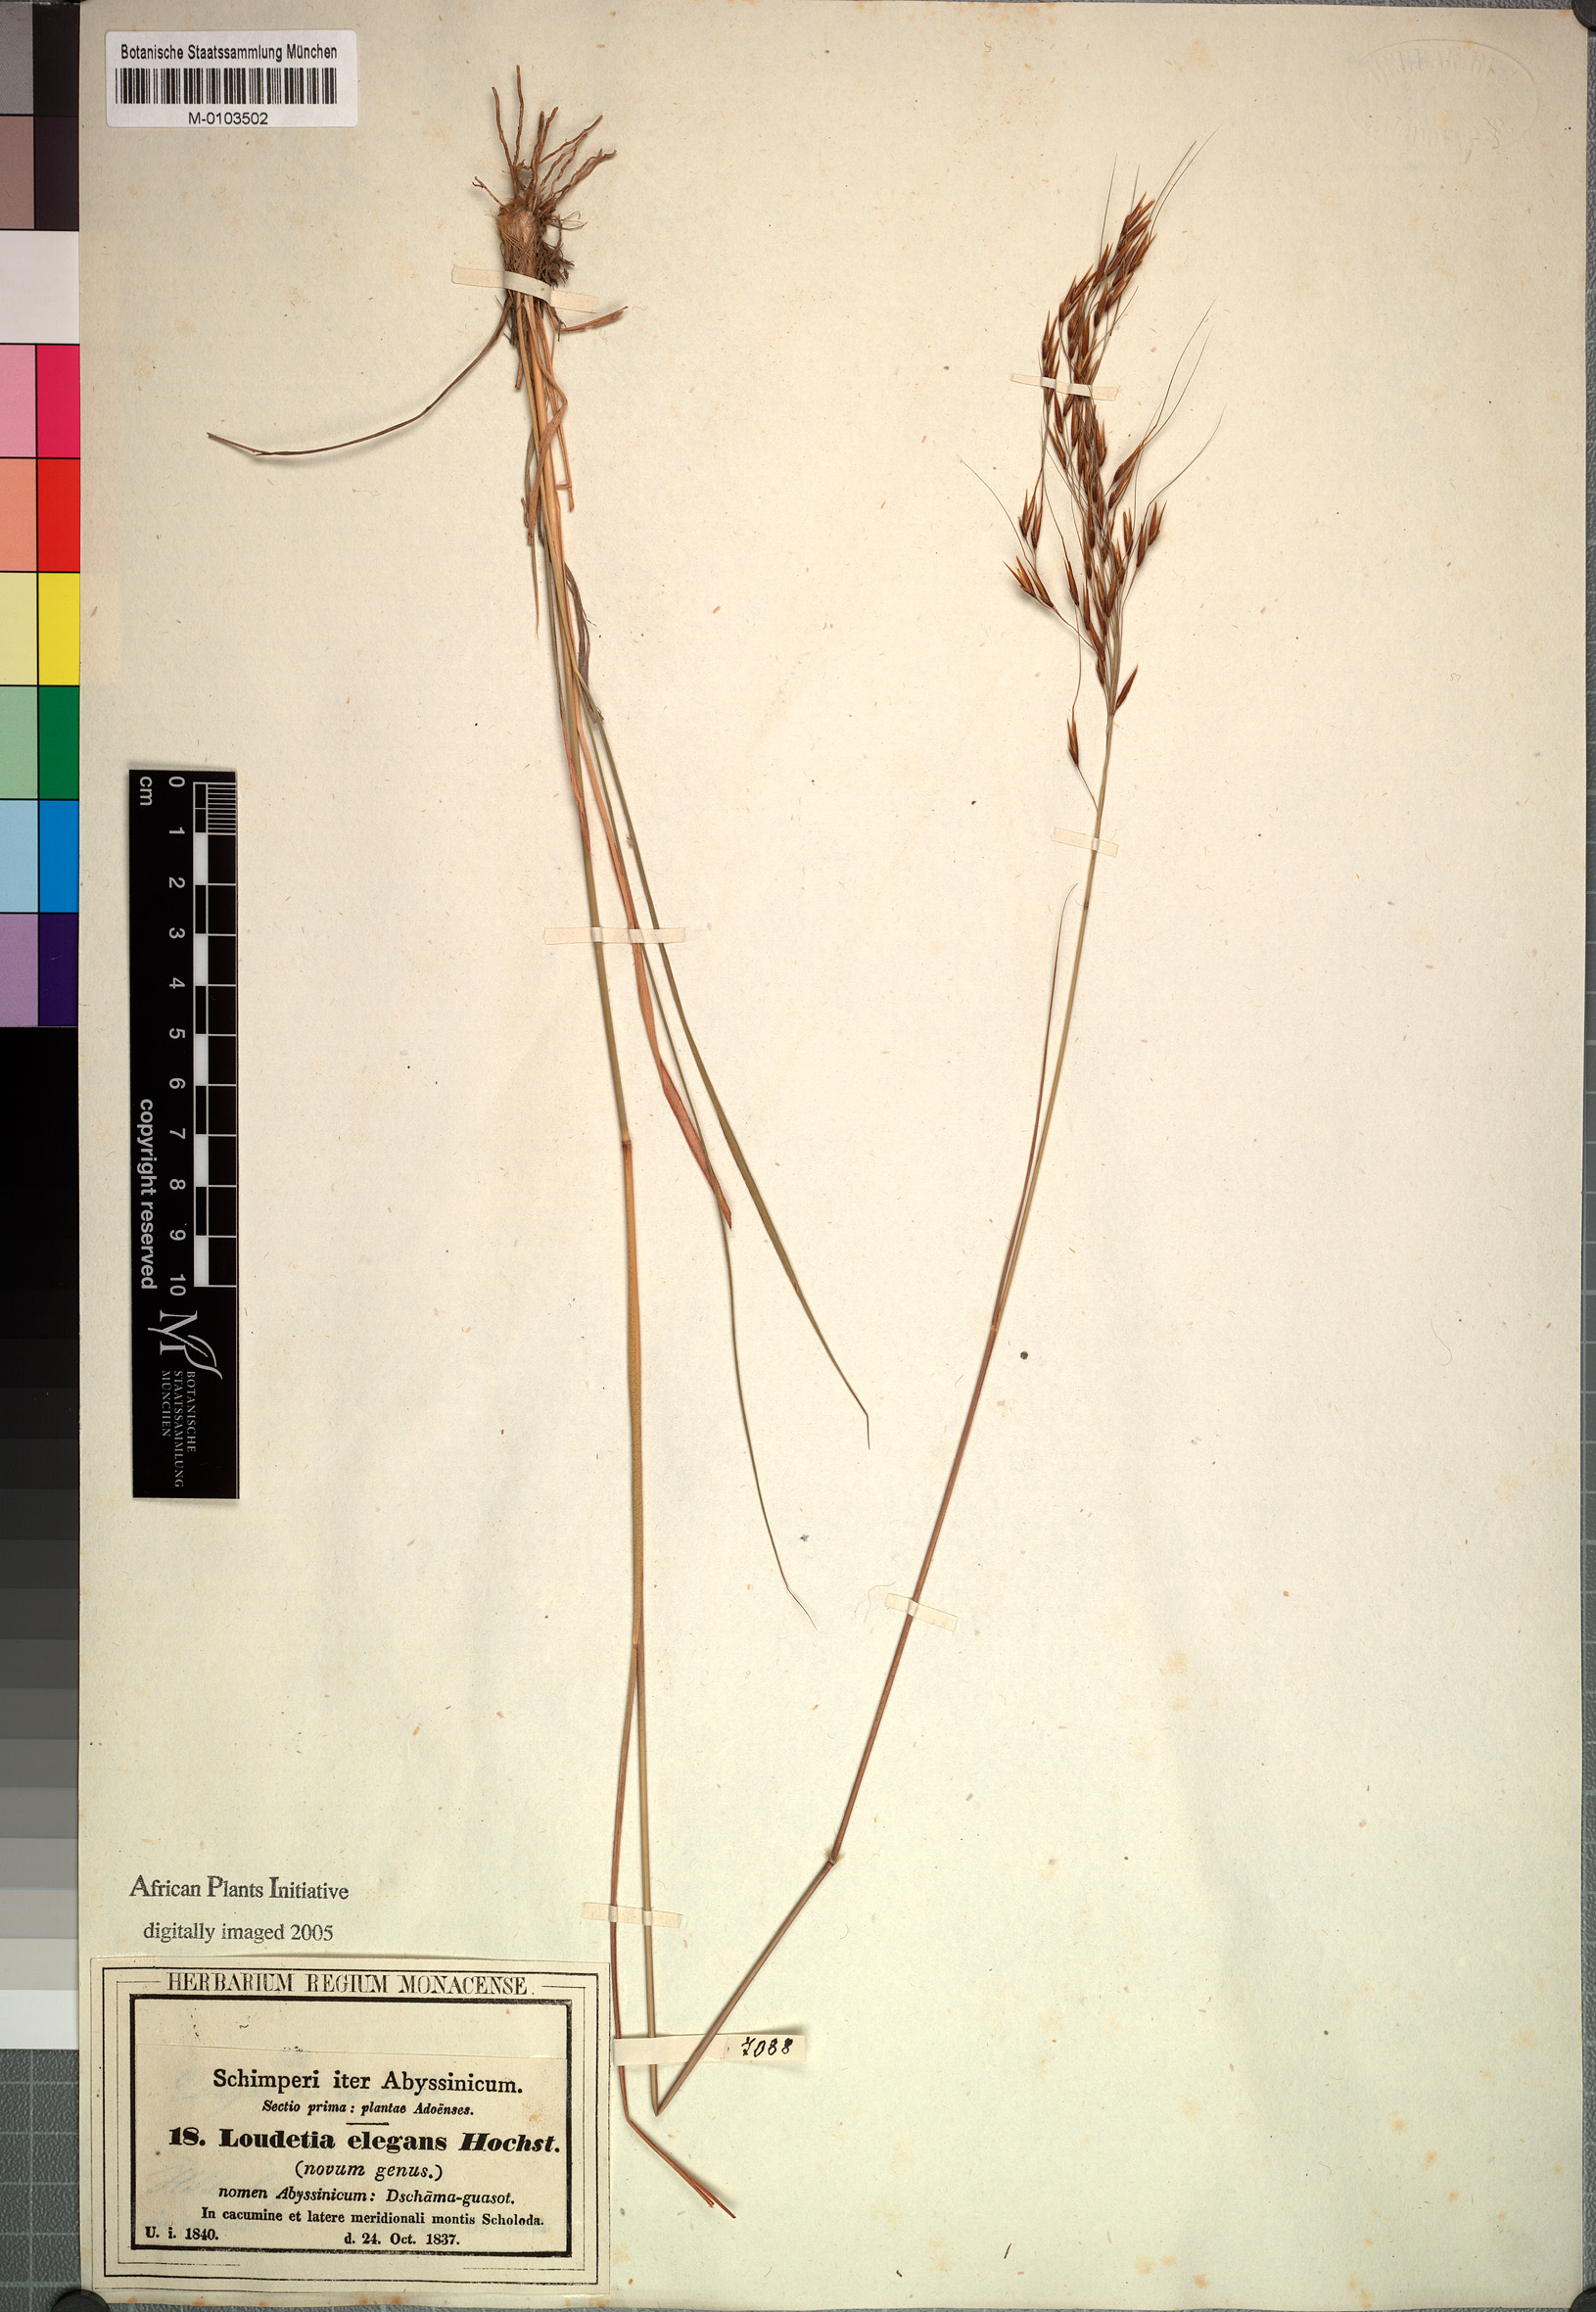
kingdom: Plantae
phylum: Tracheophyta
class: Liliopsida
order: Poales
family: Poaceae
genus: Loudetia
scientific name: Loudetia simplex
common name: Common russet grass
